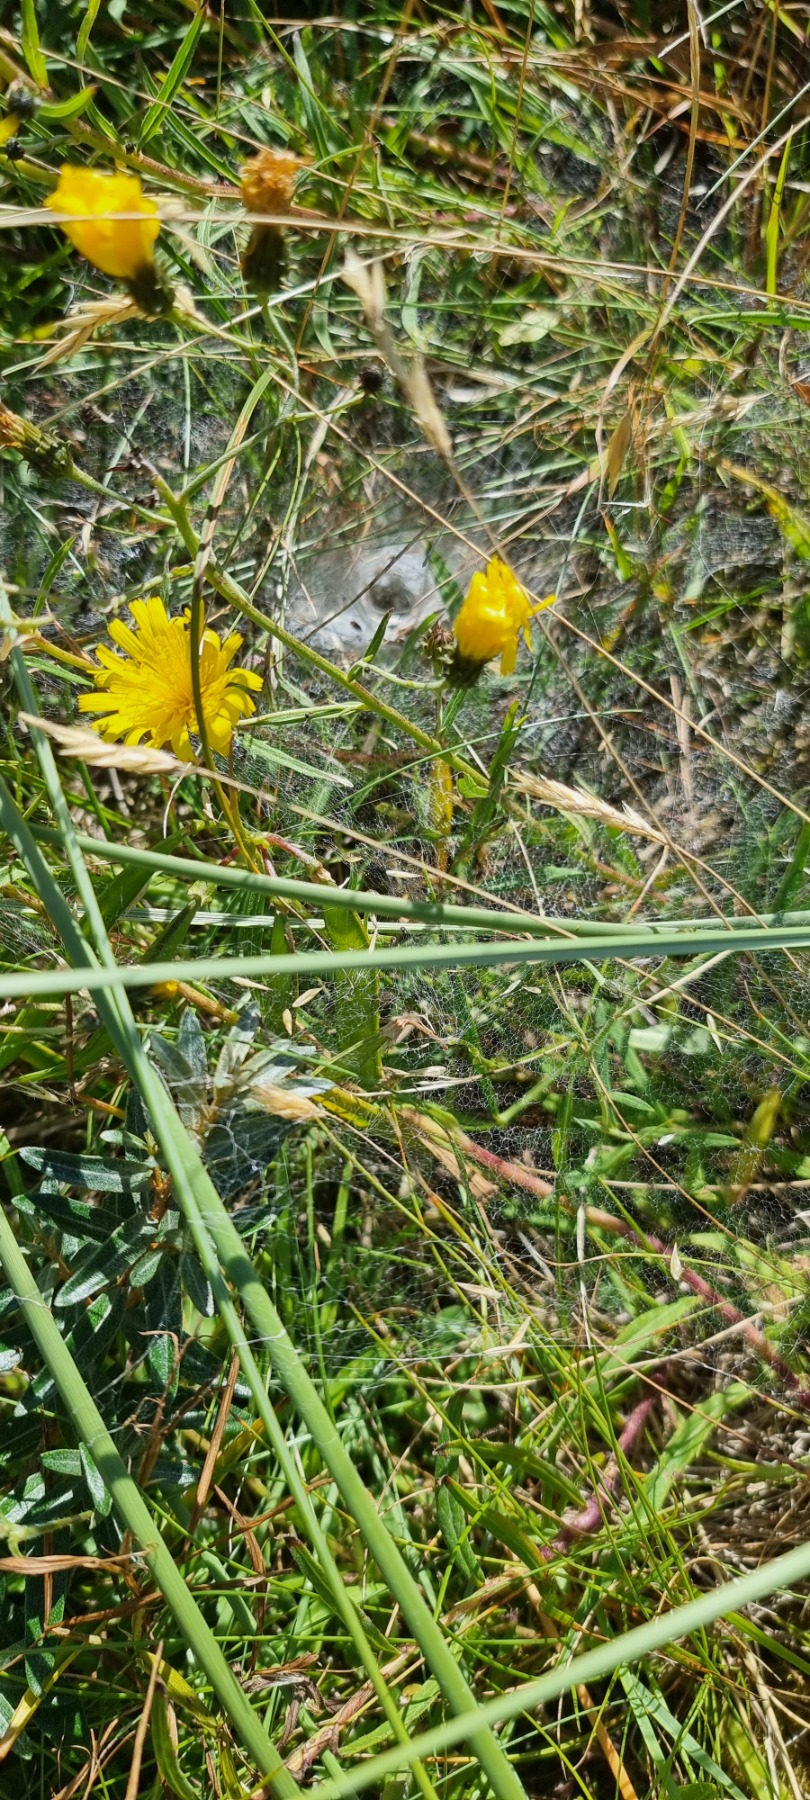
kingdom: Animalia
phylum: Arthropoda
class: Arachnida
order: Araneae
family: Agelenidae
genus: Agelena
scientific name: Agelena labyrinthica
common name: Labyrintedderkop
